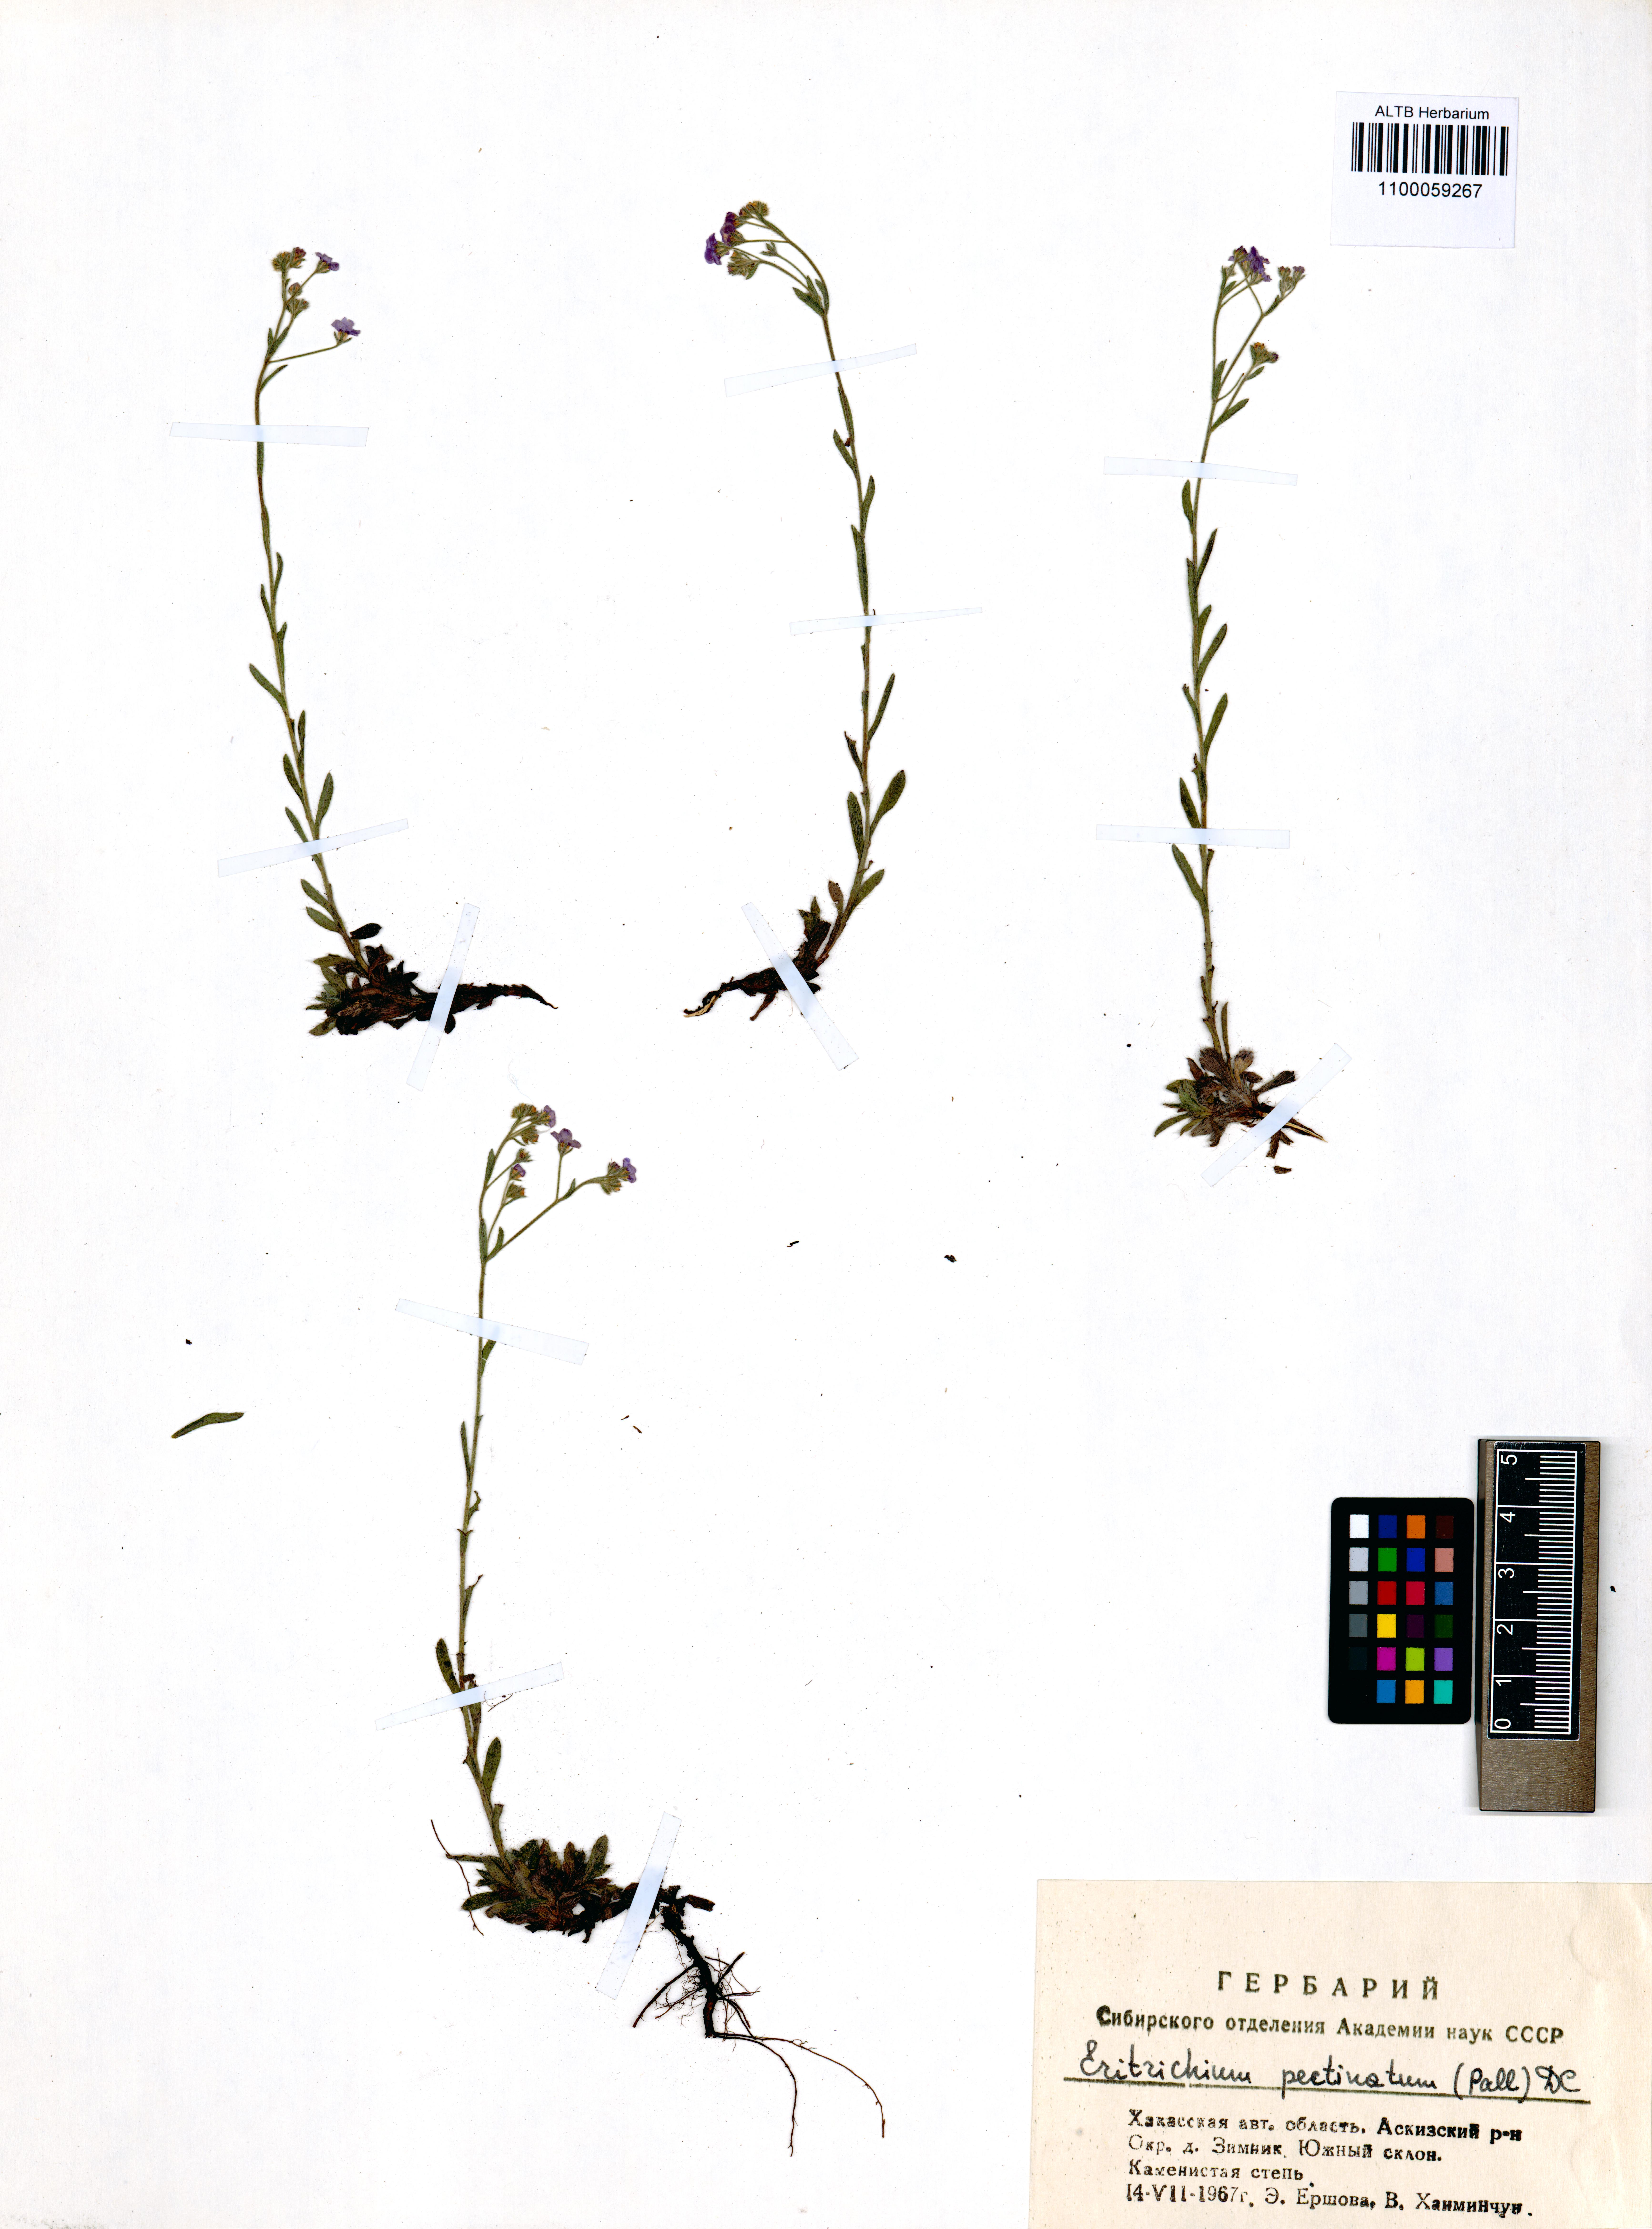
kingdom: Plantae
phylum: Tracheophyta
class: Magnoliopsida
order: Boraginales
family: Boraginaceae
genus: Eritrichium
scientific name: Eritrichium pectinatum
